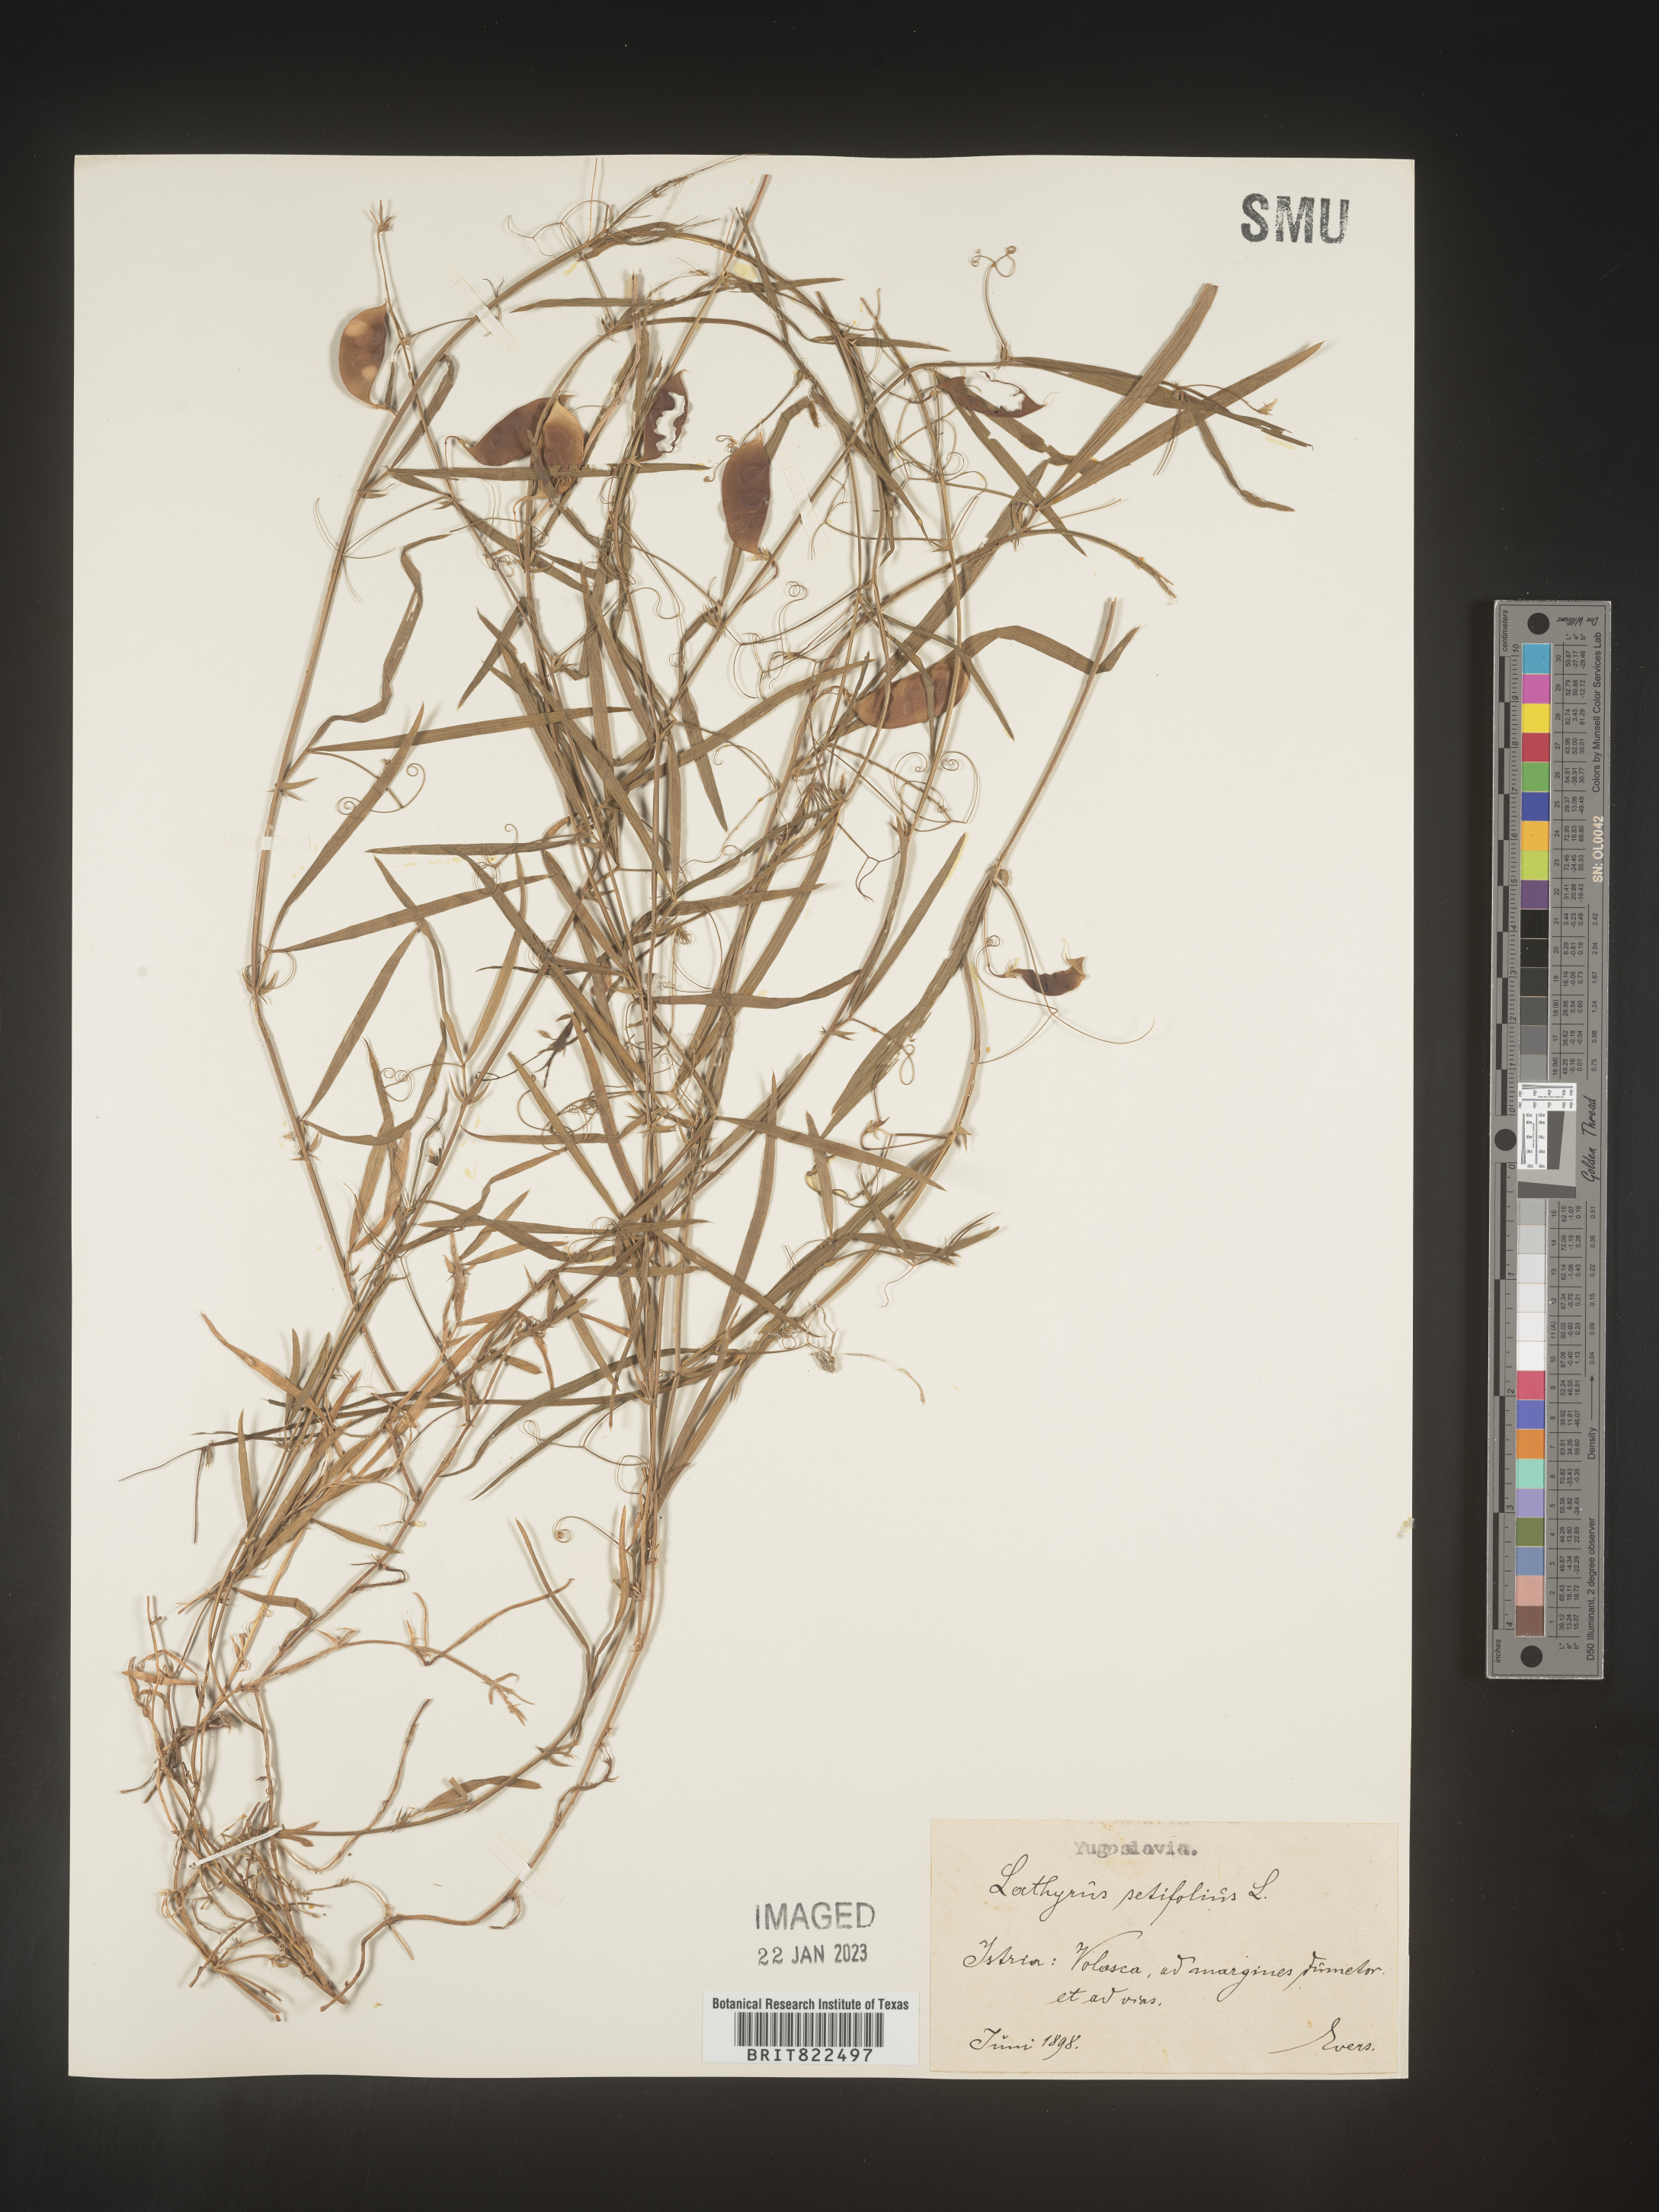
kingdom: Plantae
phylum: Tracheophyta
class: Magnoliopsida
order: Fabales
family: Fabaceae
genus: Lathyrus
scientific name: Lathyrus
